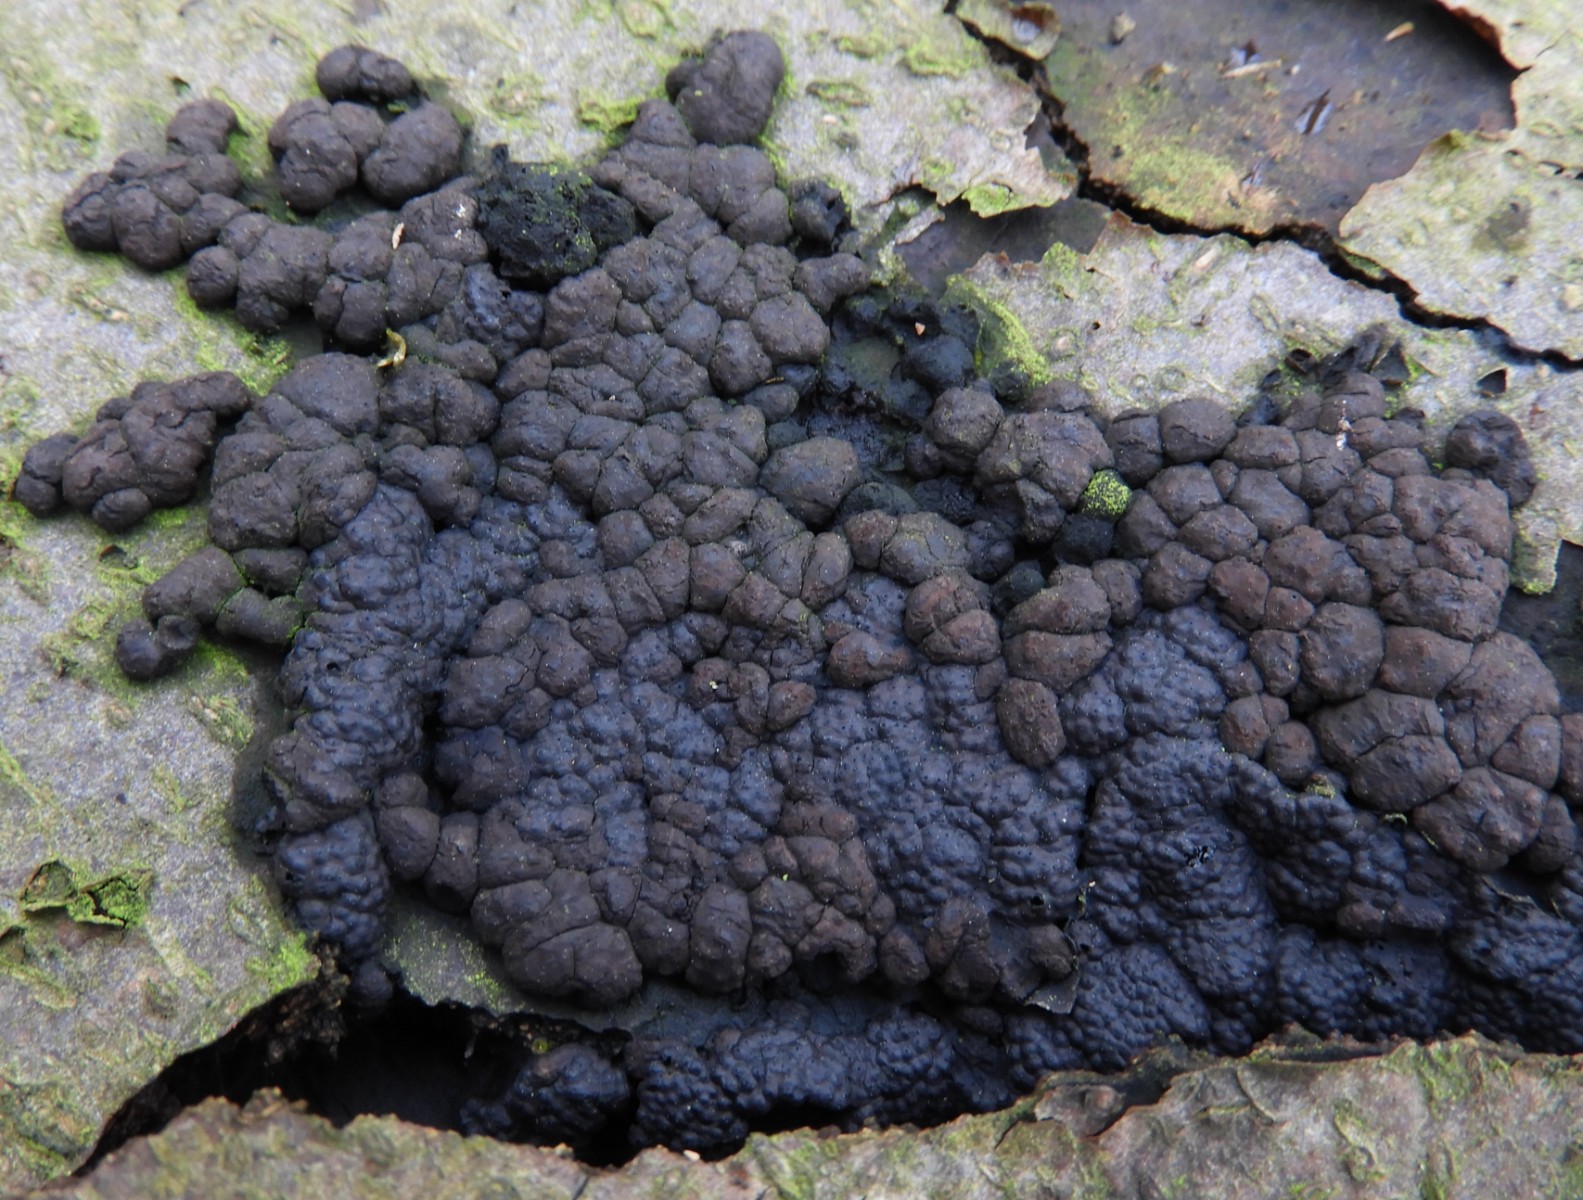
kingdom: Fungi
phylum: Ascomycota
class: Sordariomycetes
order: Xylariales
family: Hypoxylaceae
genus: Jackrogersella
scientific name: Jackrogersella cohaerens
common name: sammenflydende kulbær
